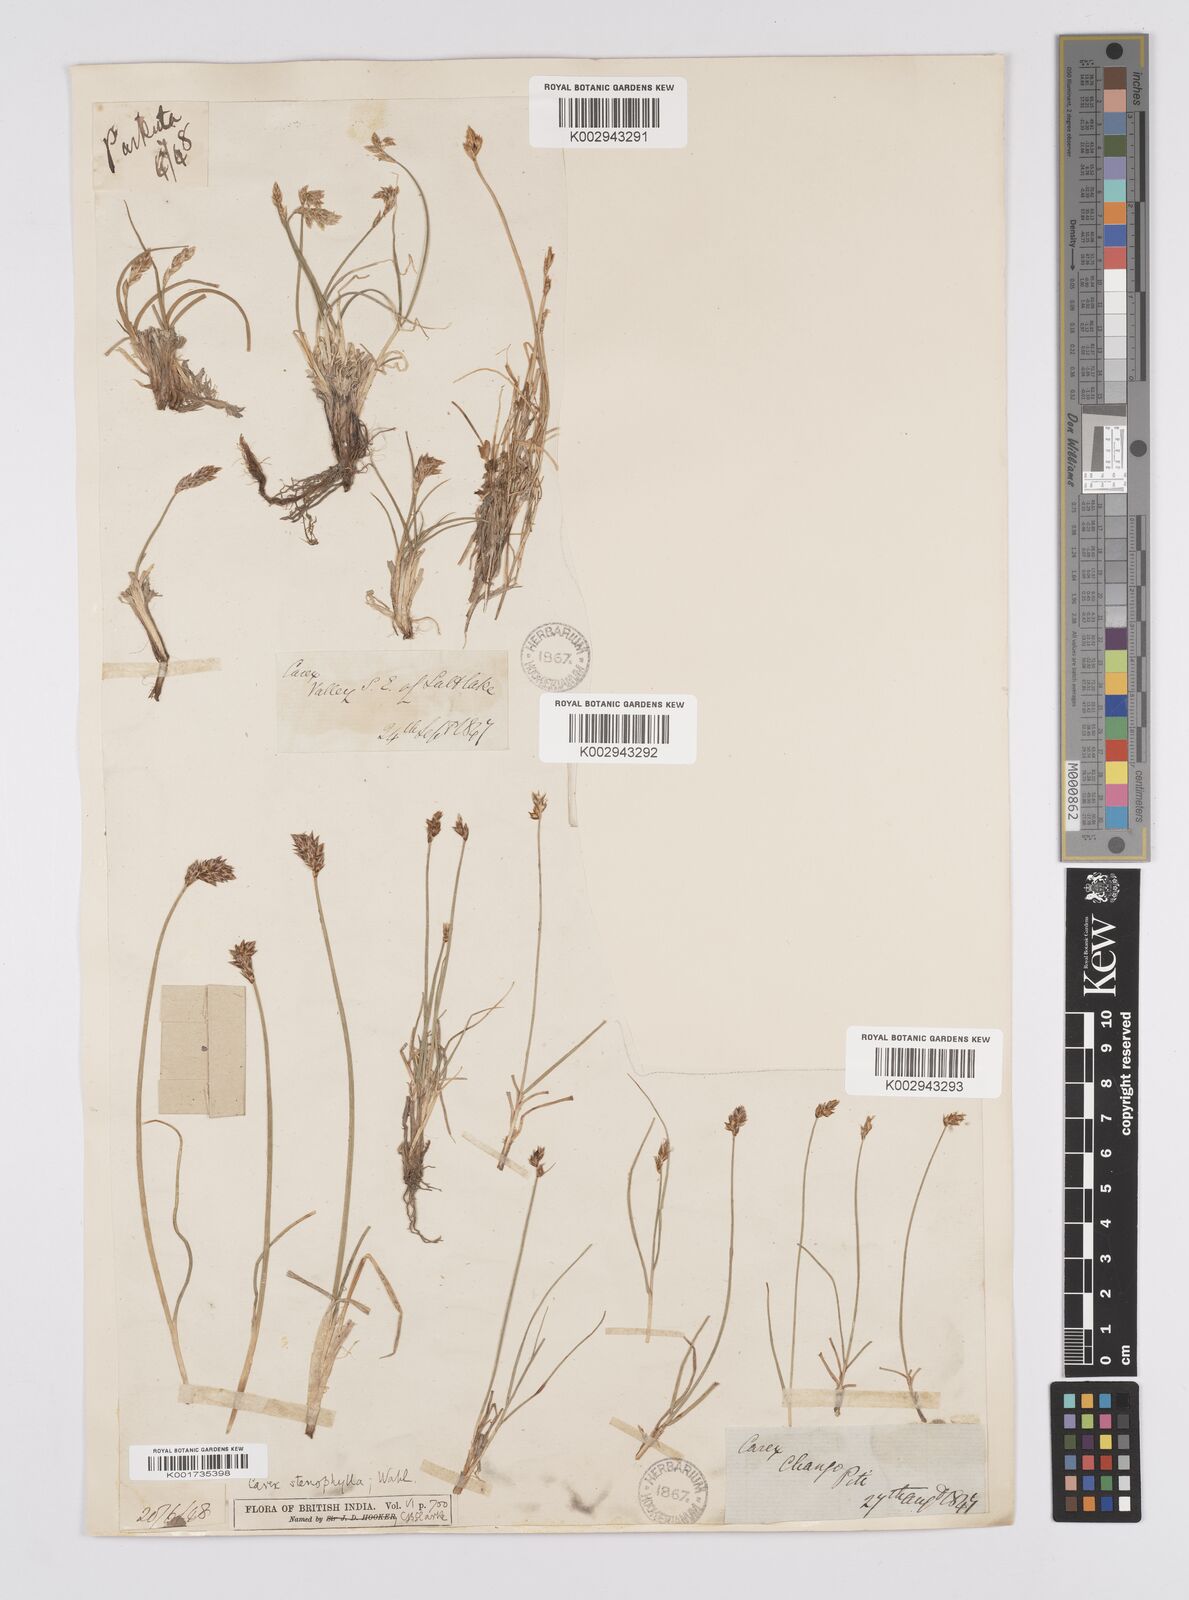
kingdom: Plantae
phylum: Tracheophyta
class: Liliopsida
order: Poales
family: Cyperaceae
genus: Carex
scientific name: Carex stenophylla
